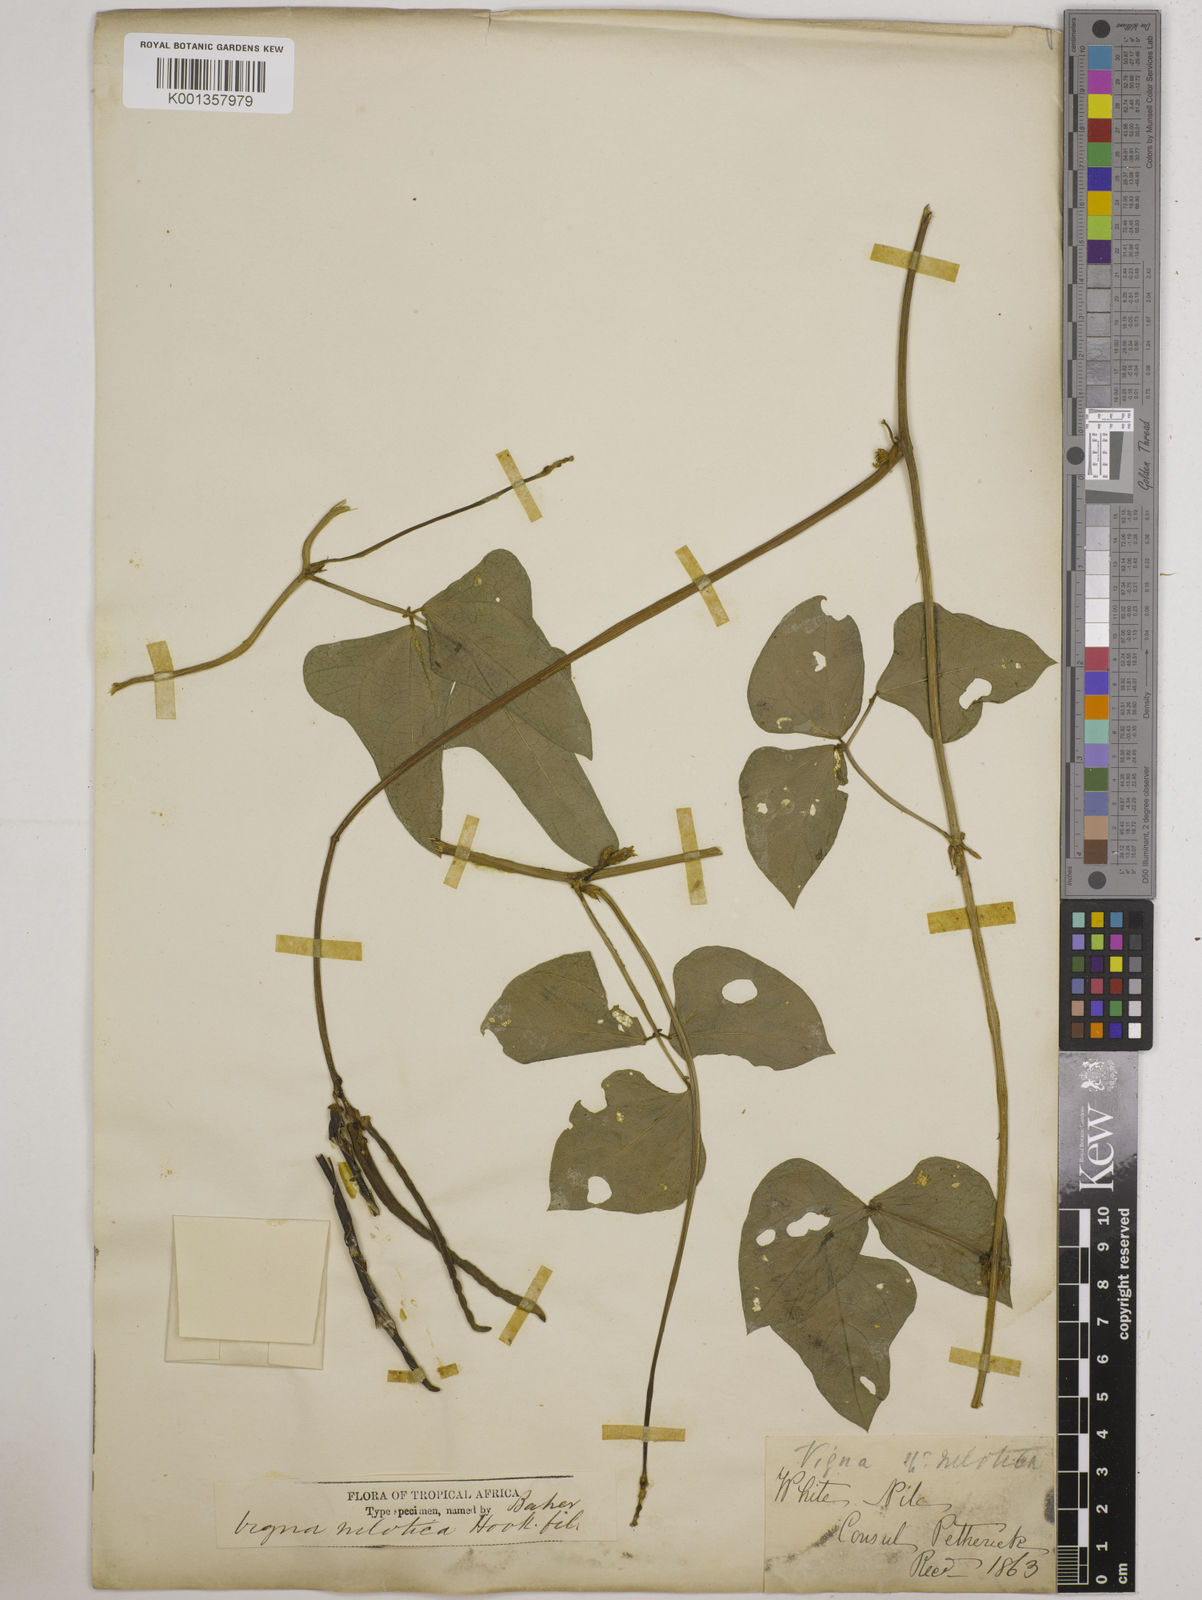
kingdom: Plantae
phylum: Tracheophyta
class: Magnoliopsida
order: Fabales
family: Fabaceae
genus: Vigna
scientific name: Vigna
